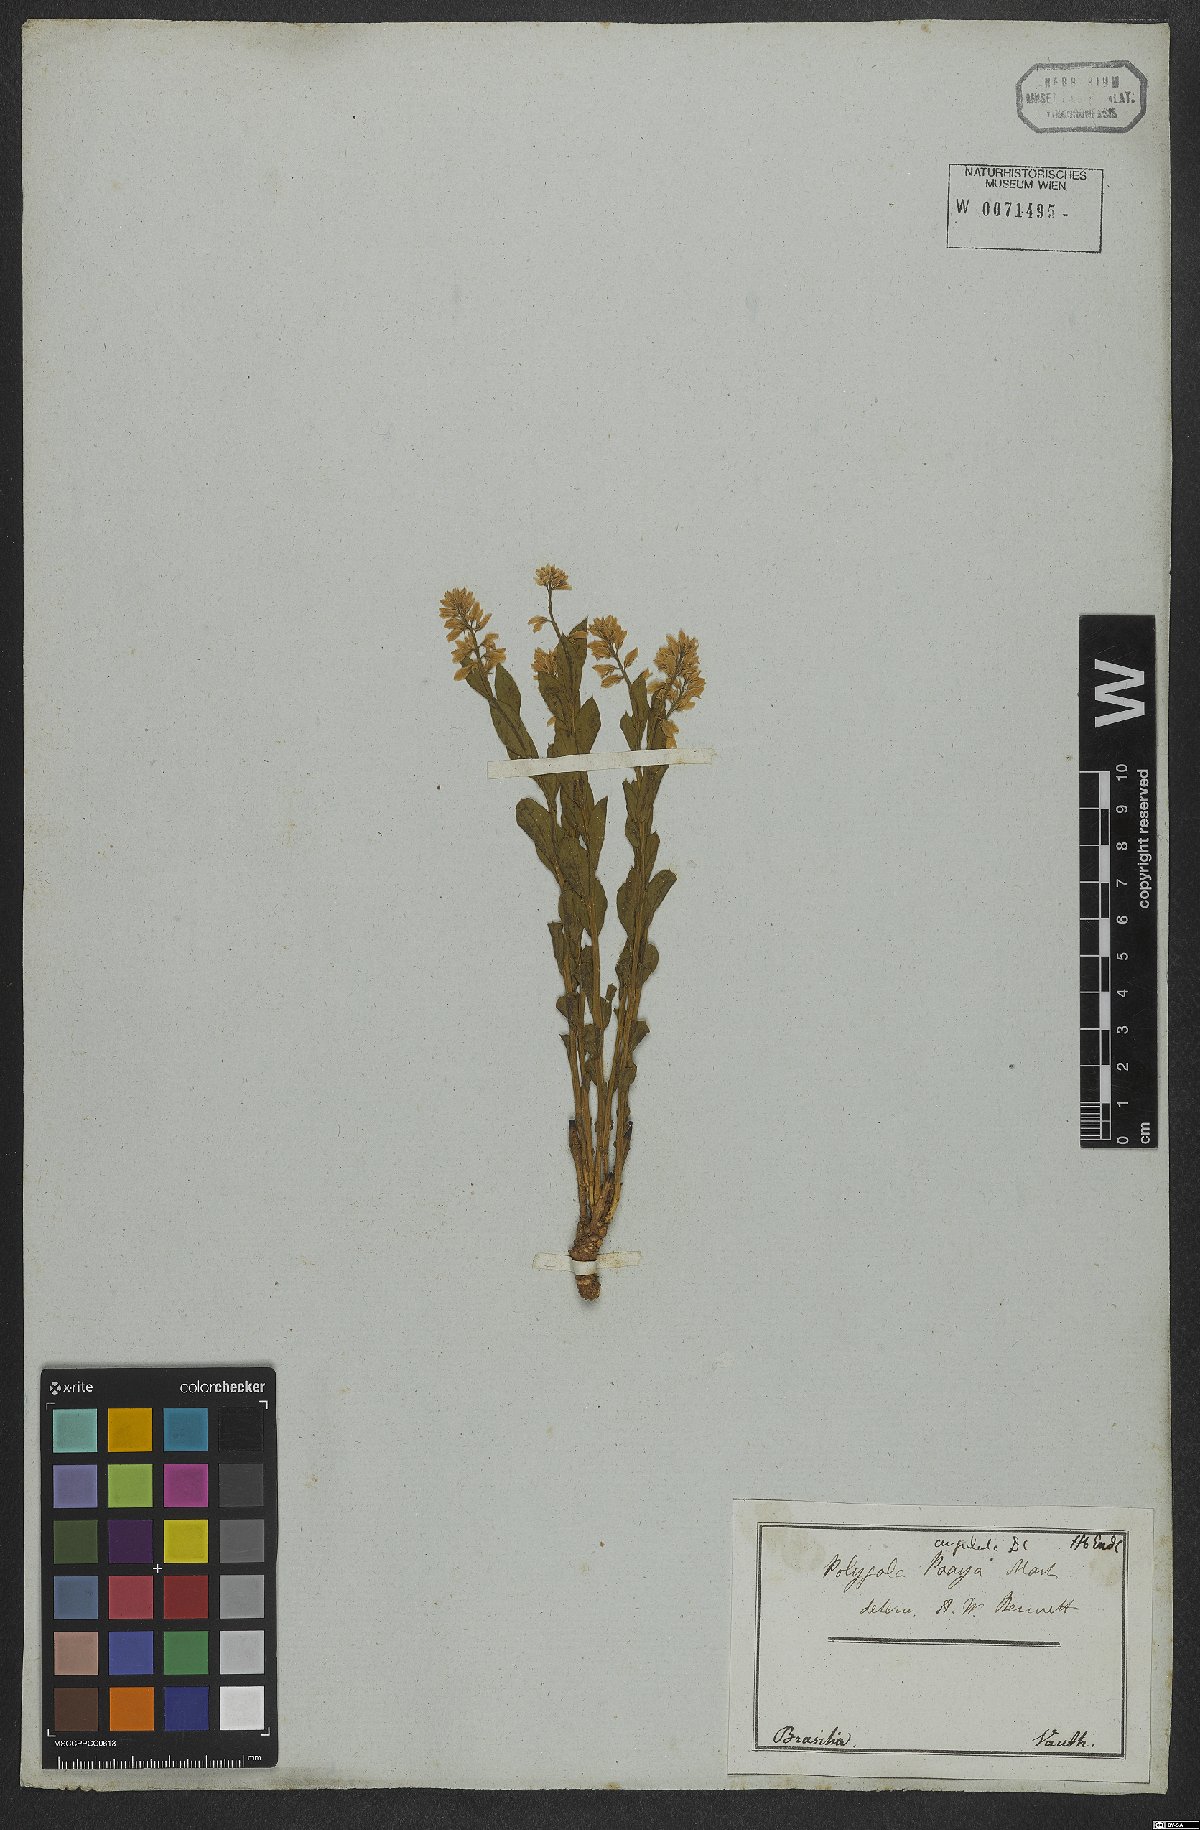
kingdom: Plantae
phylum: Tracheophyta
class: Magnoliopsida
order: Fabales
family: Polygalaceae
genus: Polygala
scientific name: Polygala poaya
